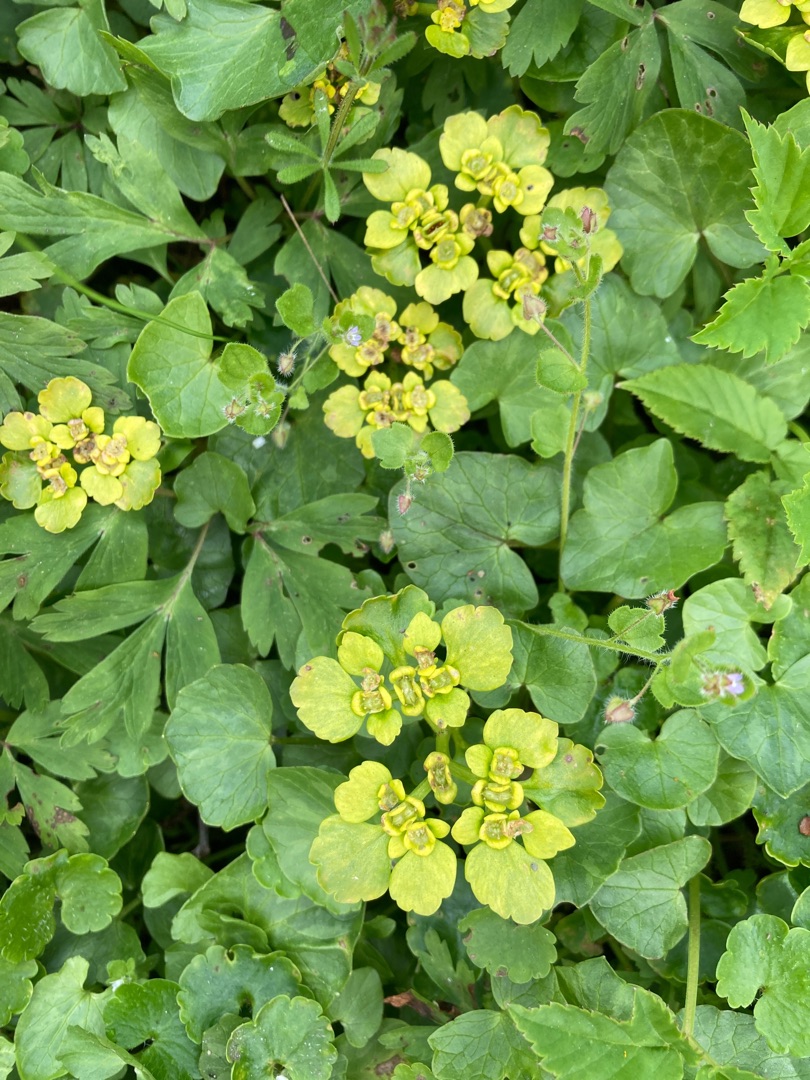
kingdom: Plantae
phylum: Tracheophyta
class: Magnoliopsida
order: Saxifragales
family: Saxifragaceae
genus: Chrysosplenium
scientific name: Chrysosplenium alternifolium
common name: Almindelig milturt
